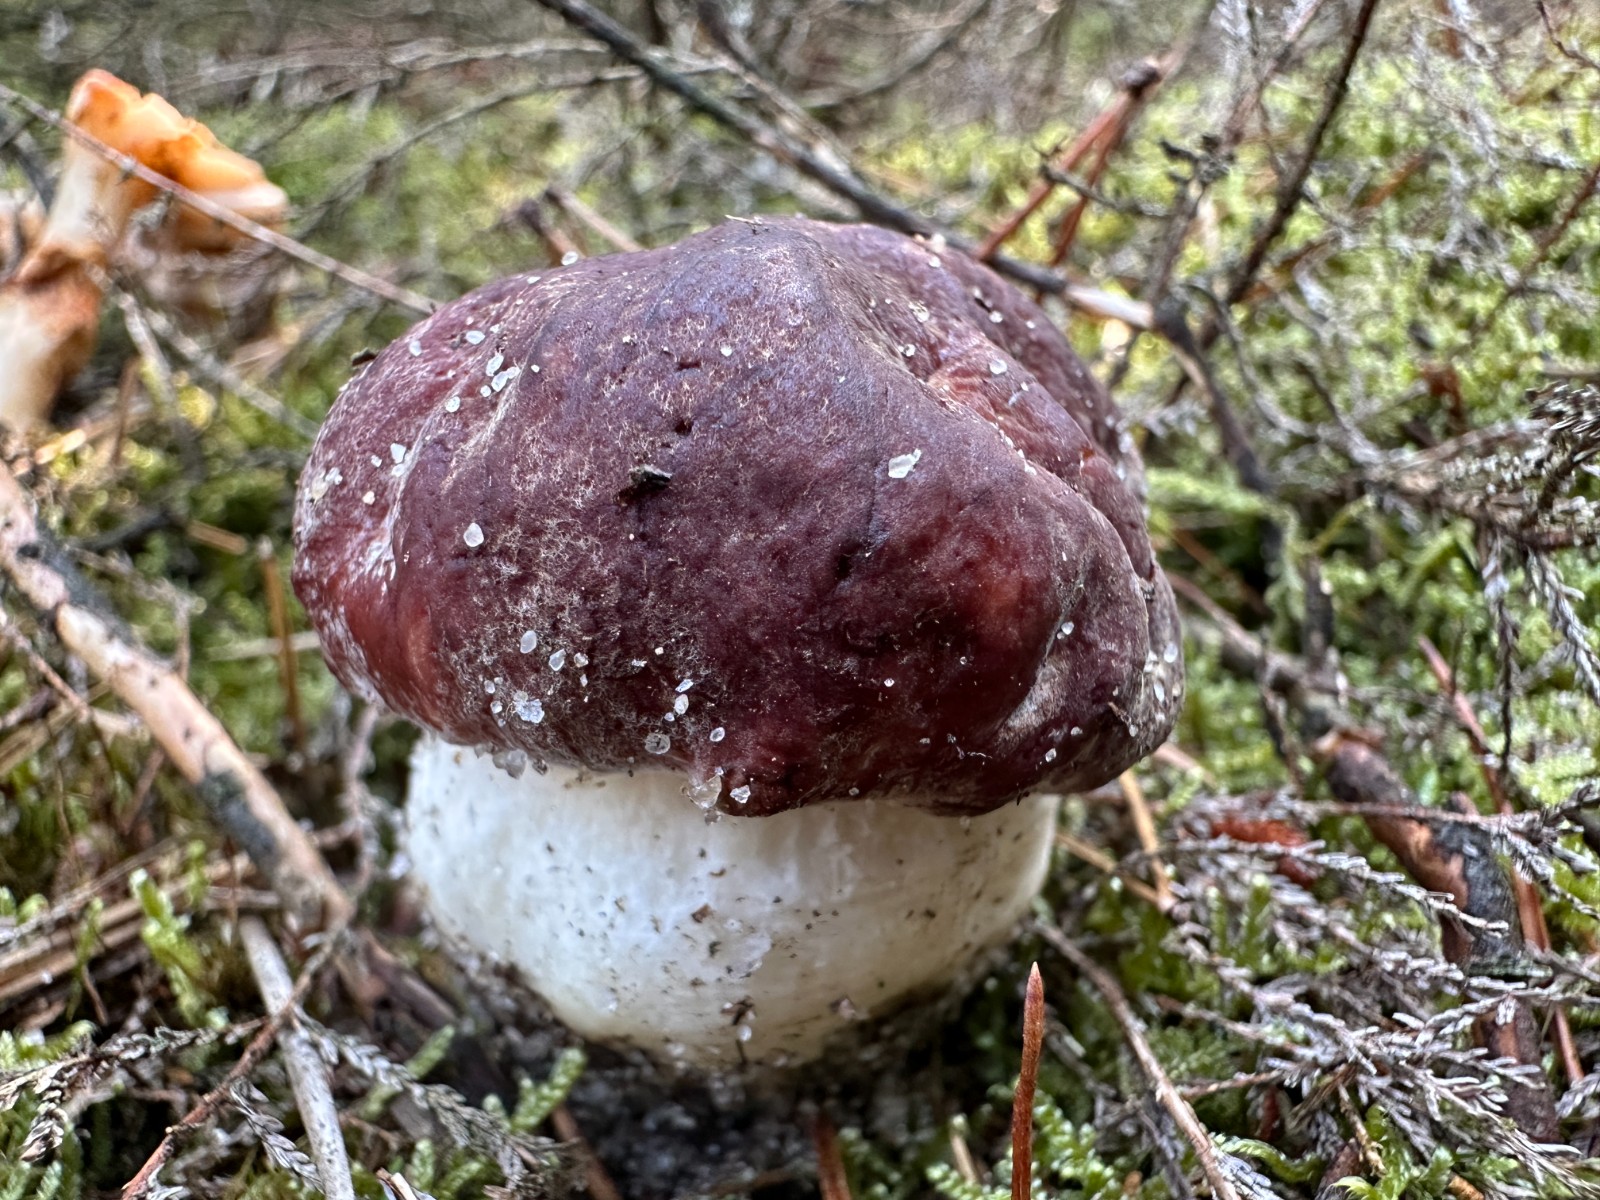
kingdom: Fungi
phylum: Basidiomycota
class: Agaricomycetes
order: Boletales
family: Boletaceae
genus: Boletus
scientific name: Boletus pinophilus
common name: rødbrun rørhat
